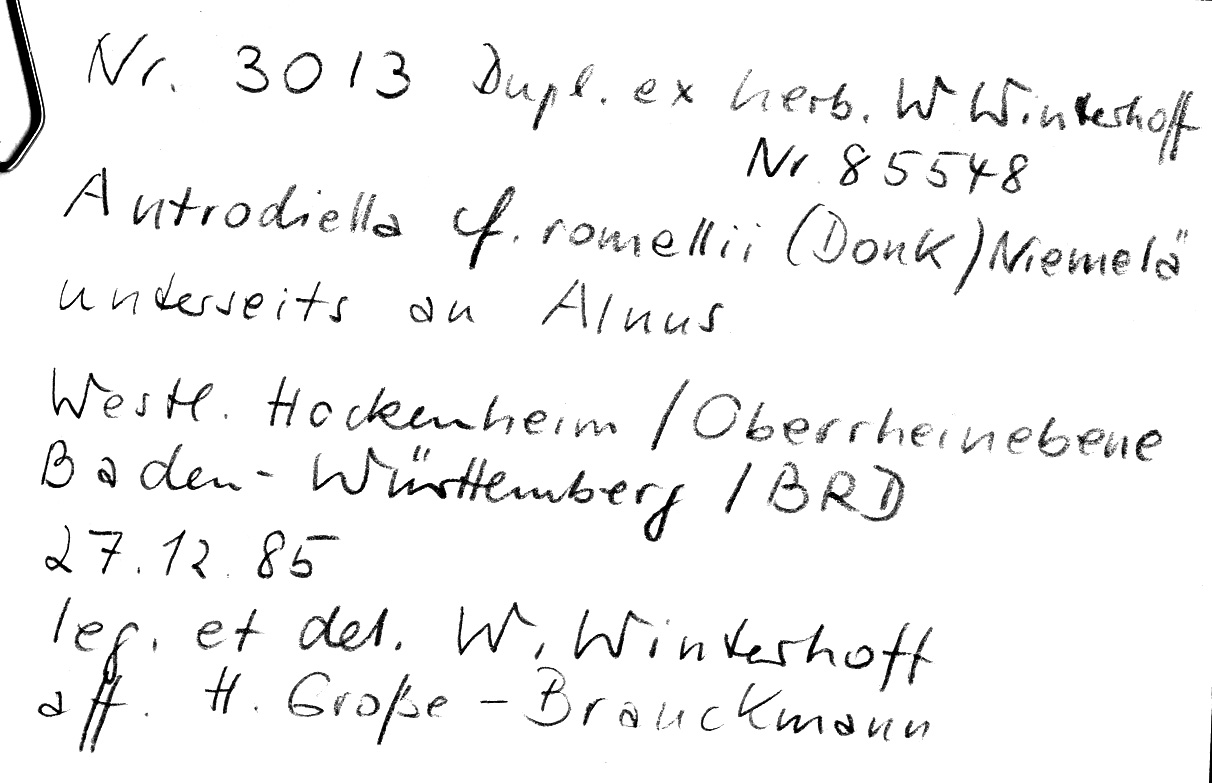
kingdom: Fungi
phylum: Basidiomycota
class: Agaricomycetes
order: Polyporales
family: Steccherinaceae
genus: Antrodiella
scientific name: Antrodiella romellii
